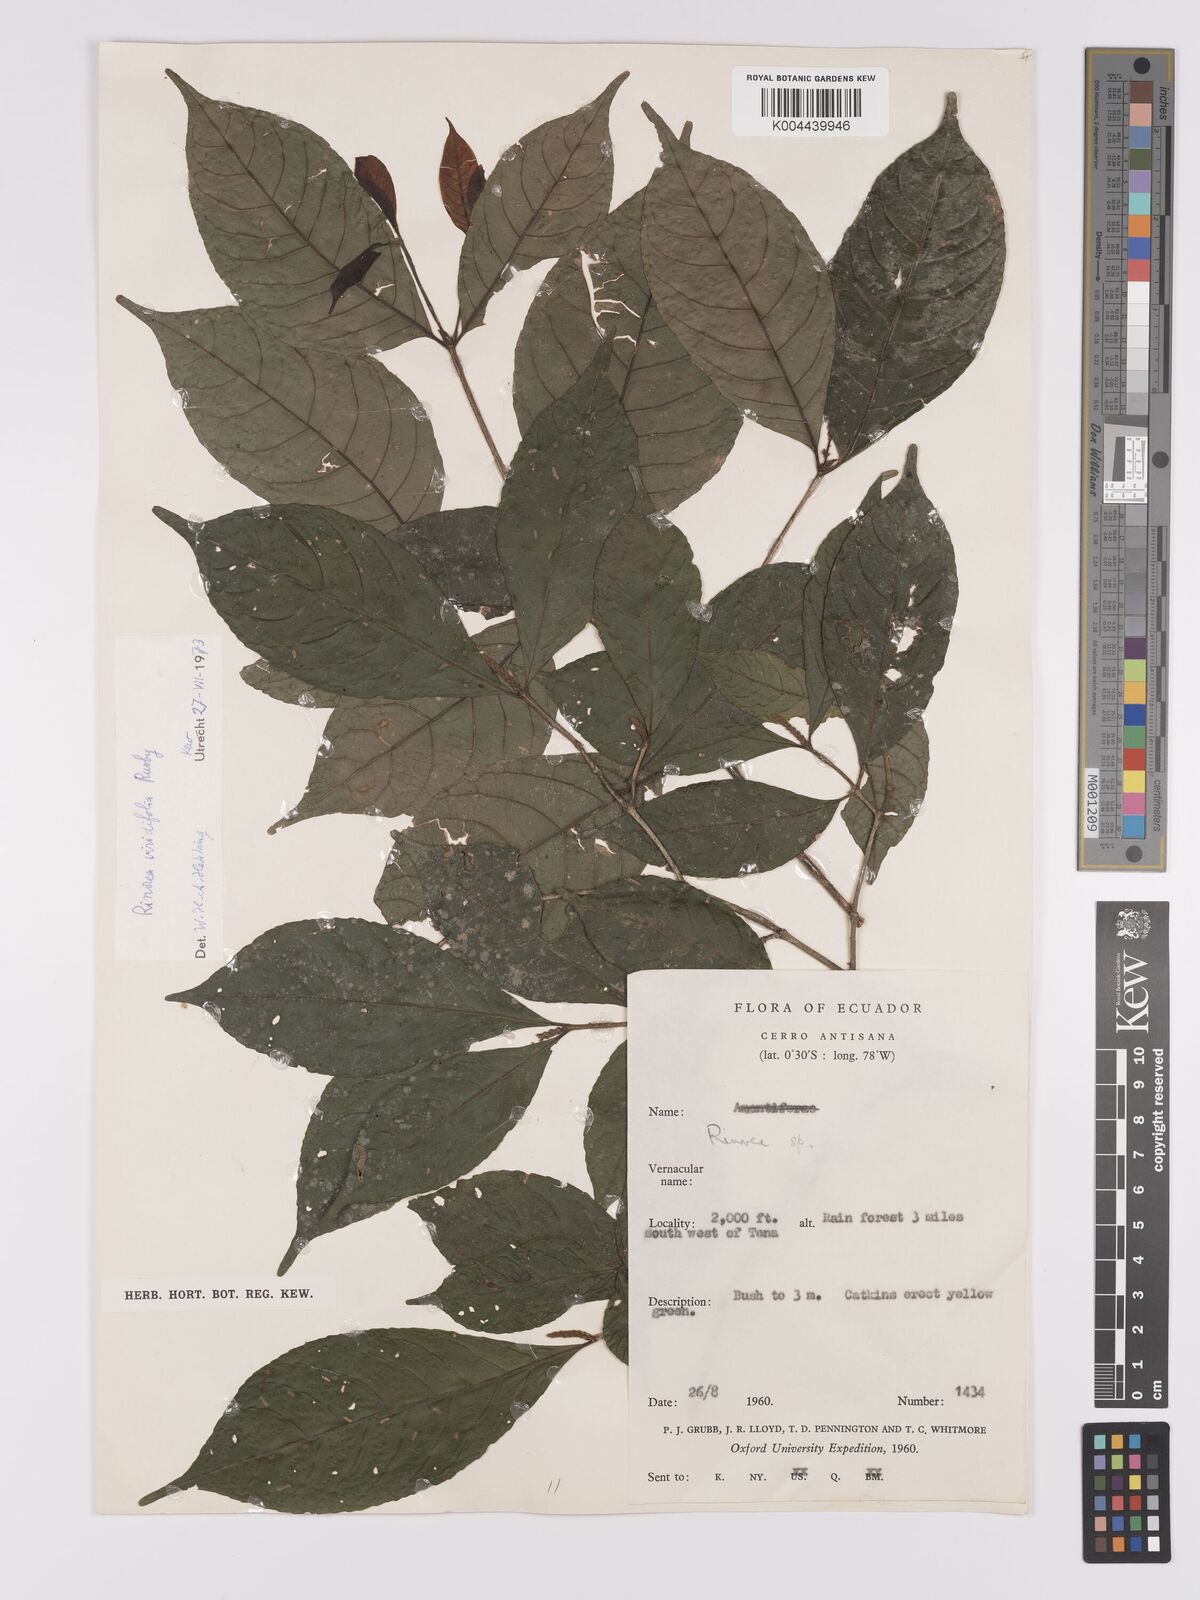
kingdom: Plantae
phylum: Tracheophyta
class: Magnoliopsida
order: Malpighiales
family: Violaceae
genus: Rinorea
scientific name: Rinorea viridifolia
